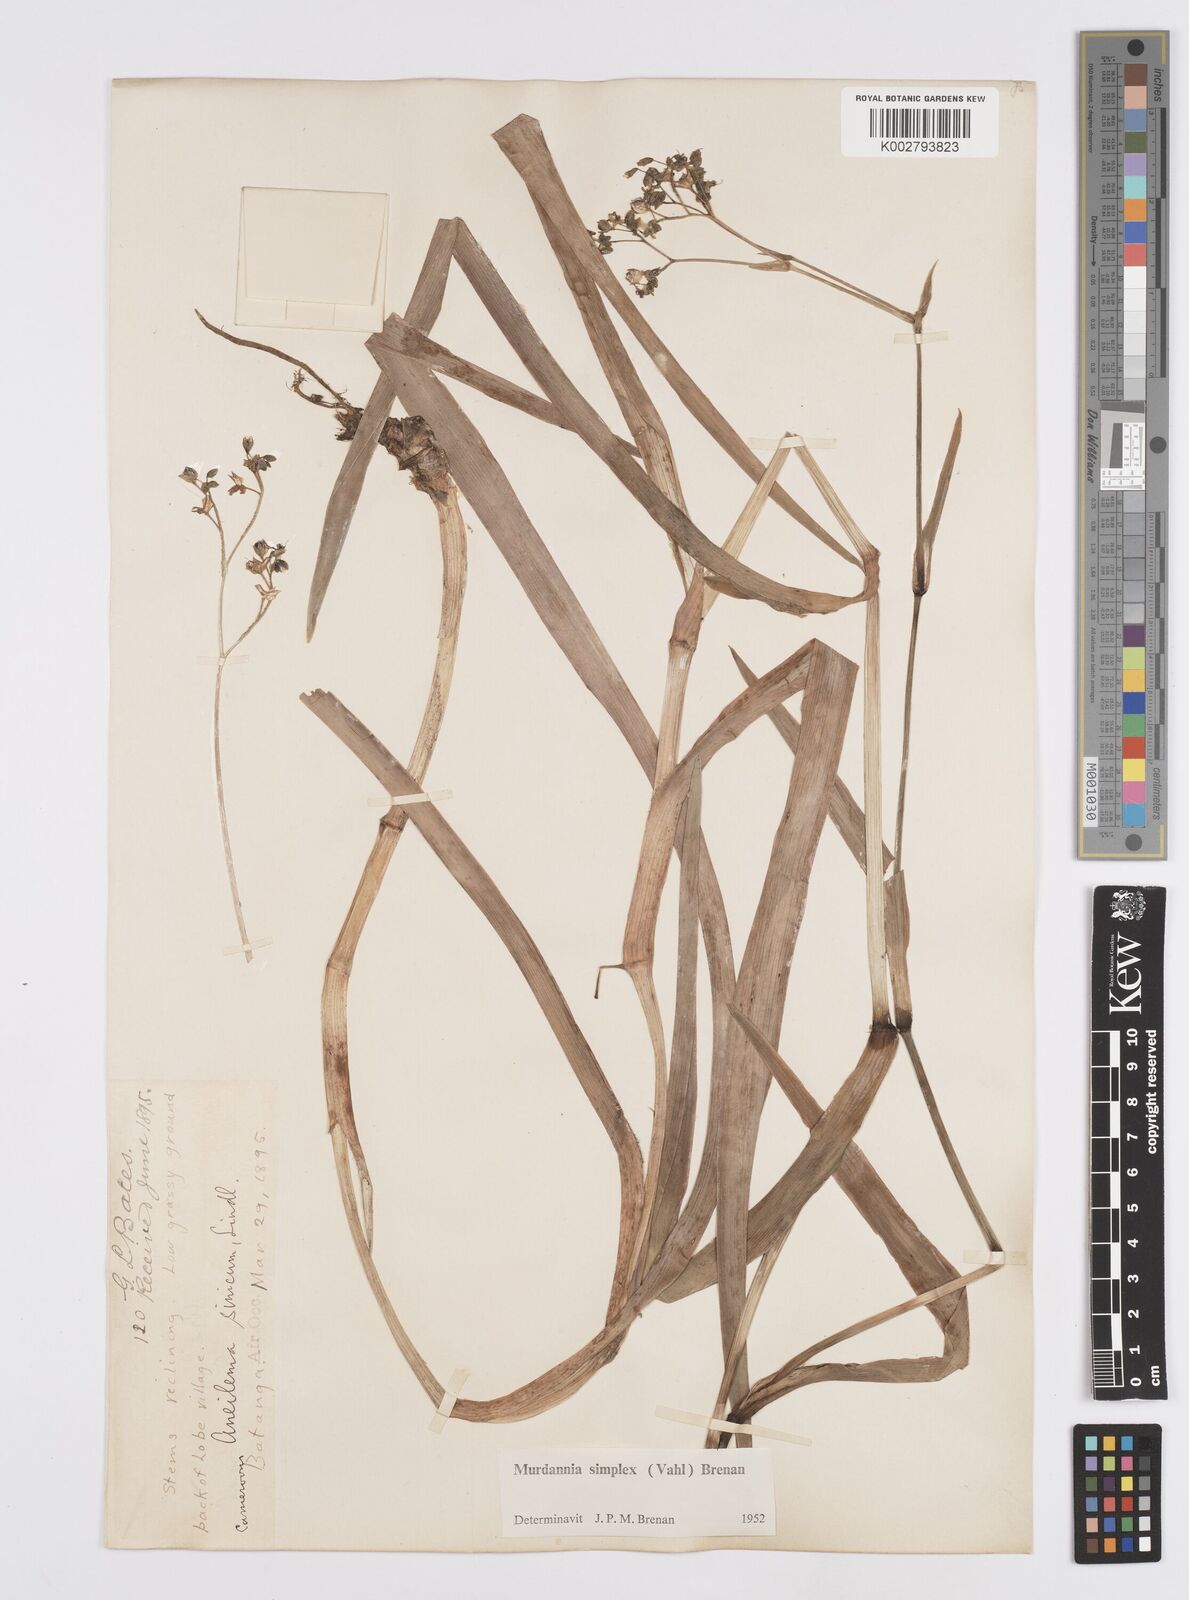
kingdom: Plantae
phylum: Tracheophyta
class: Liliopsida
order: Commelinales
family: Commelinaceae
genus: Murdannia
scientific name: Murdannia simplex
